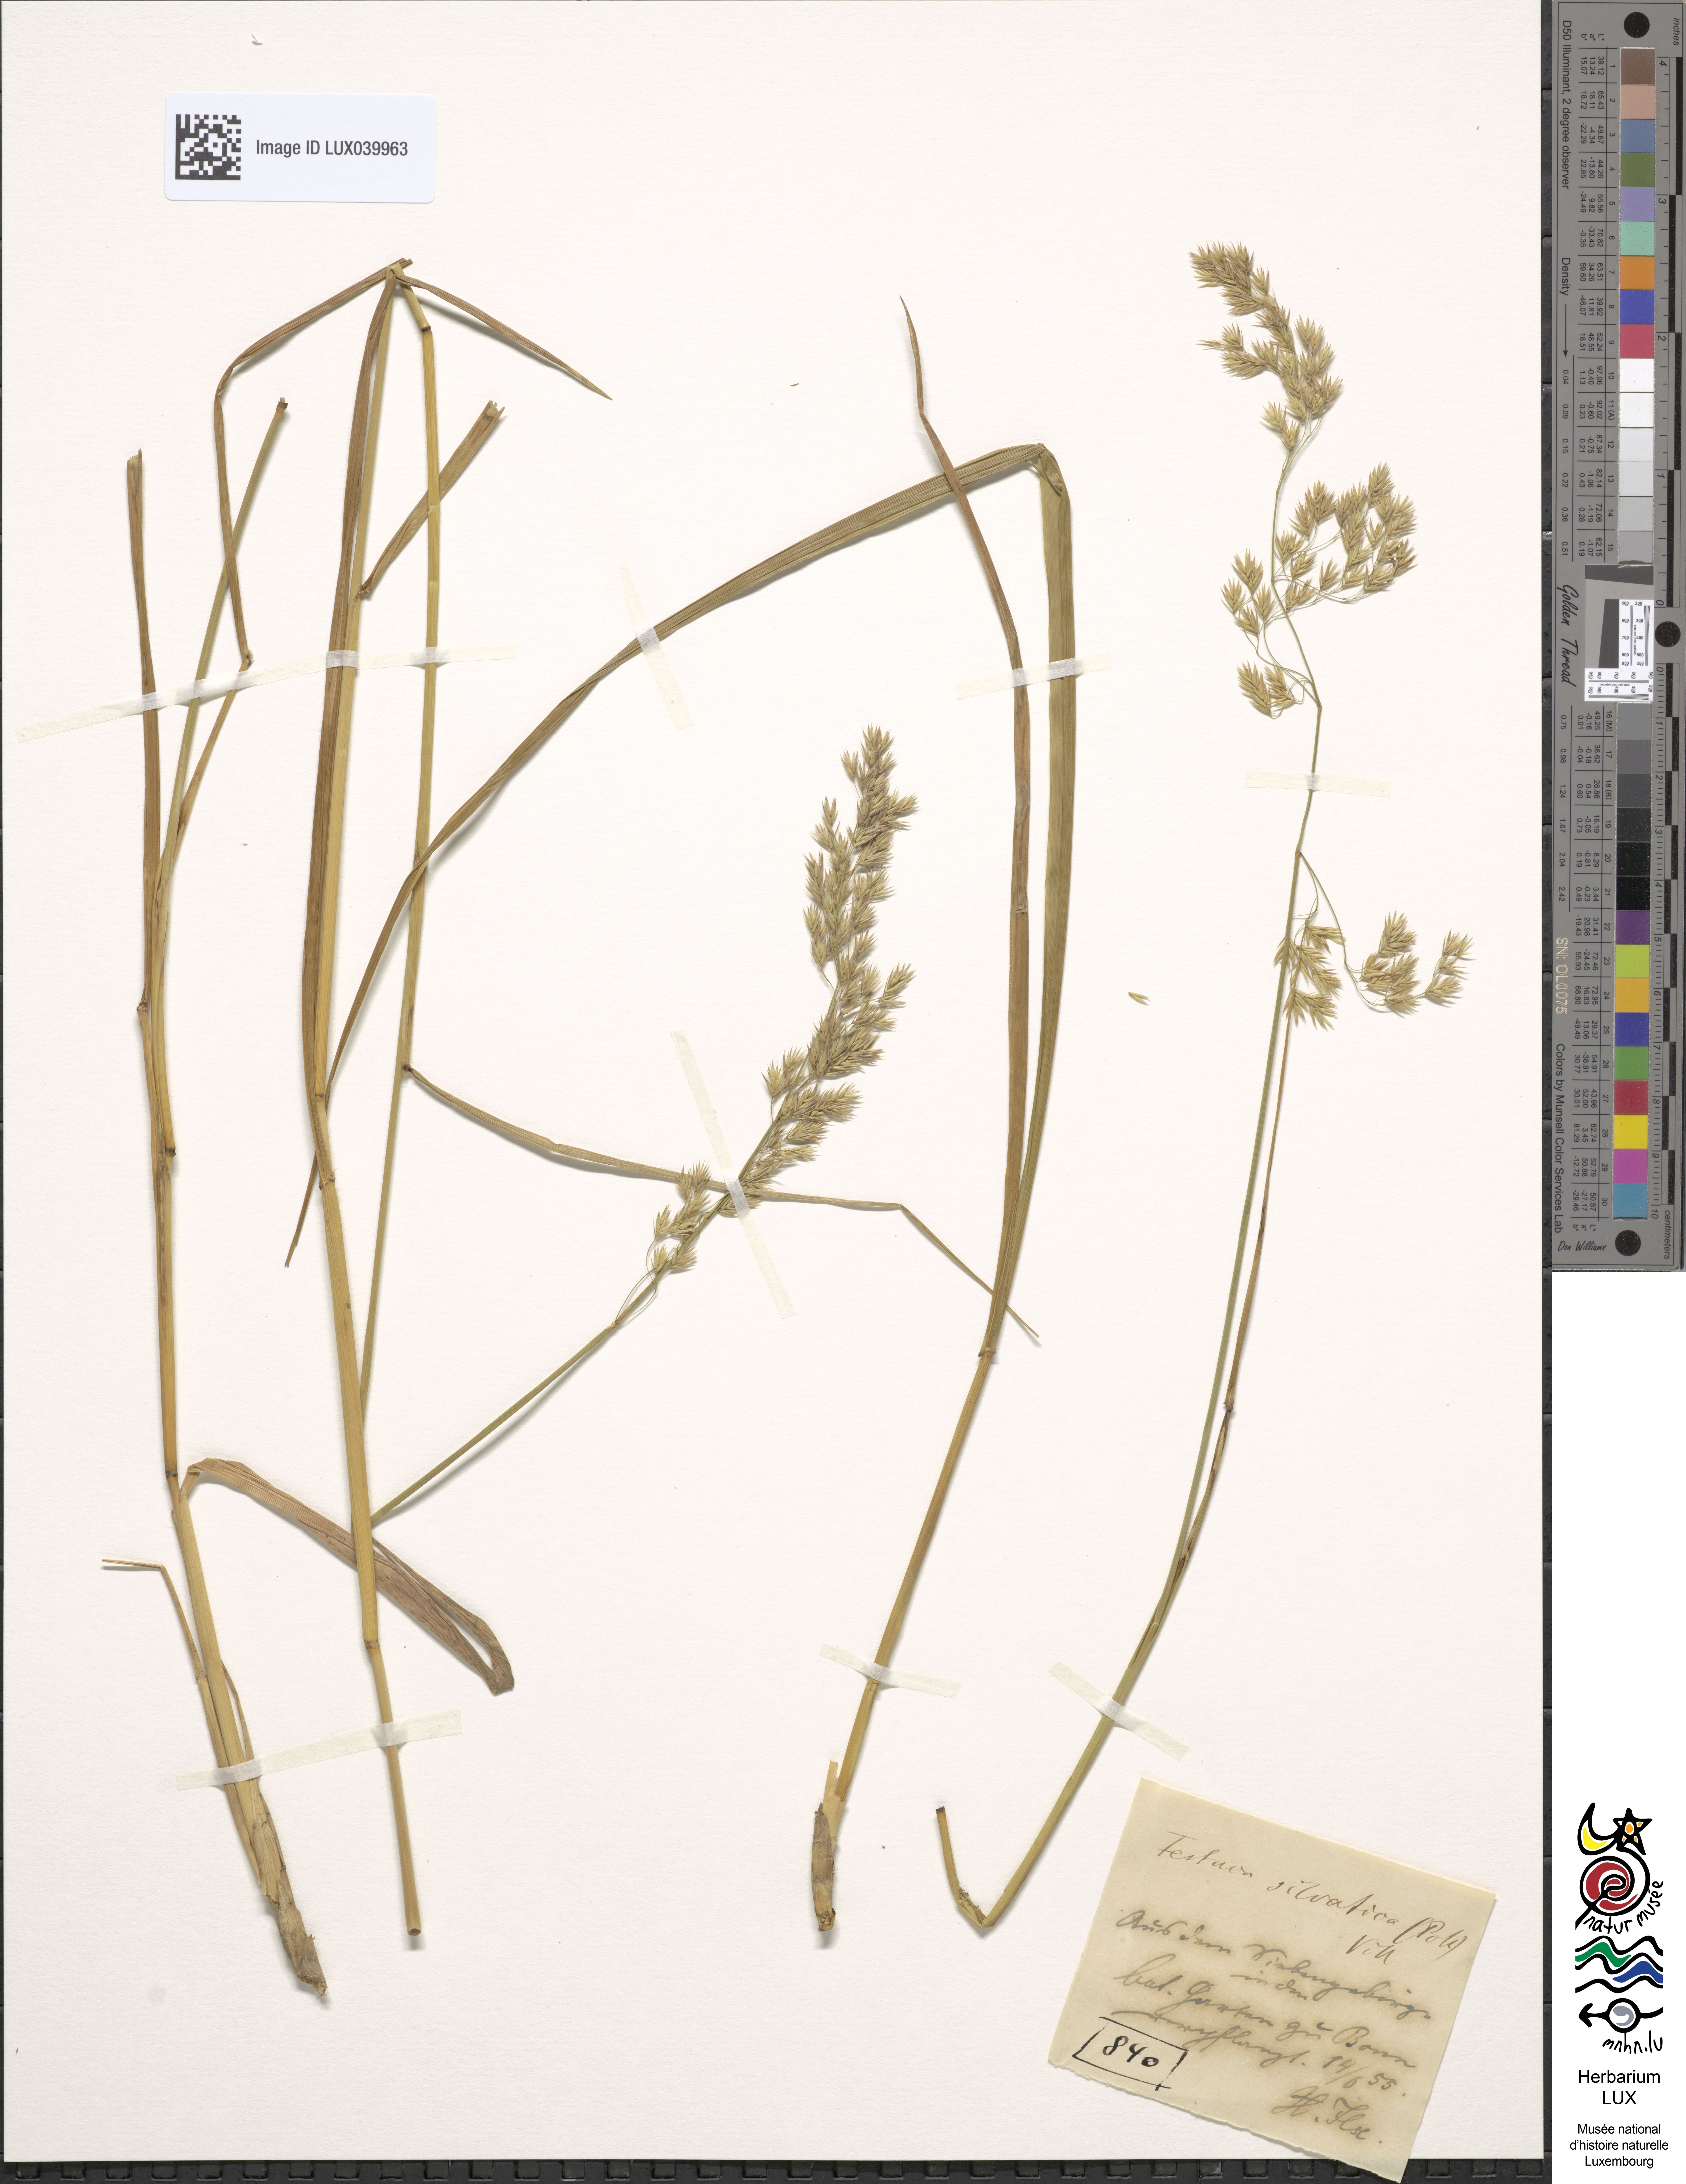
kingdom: Plantae
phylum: Tracheophyta
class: Liliopsida
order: Poales
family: Poaceae
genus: Festuca
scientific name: Festuca altissima
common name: Wood fescue
